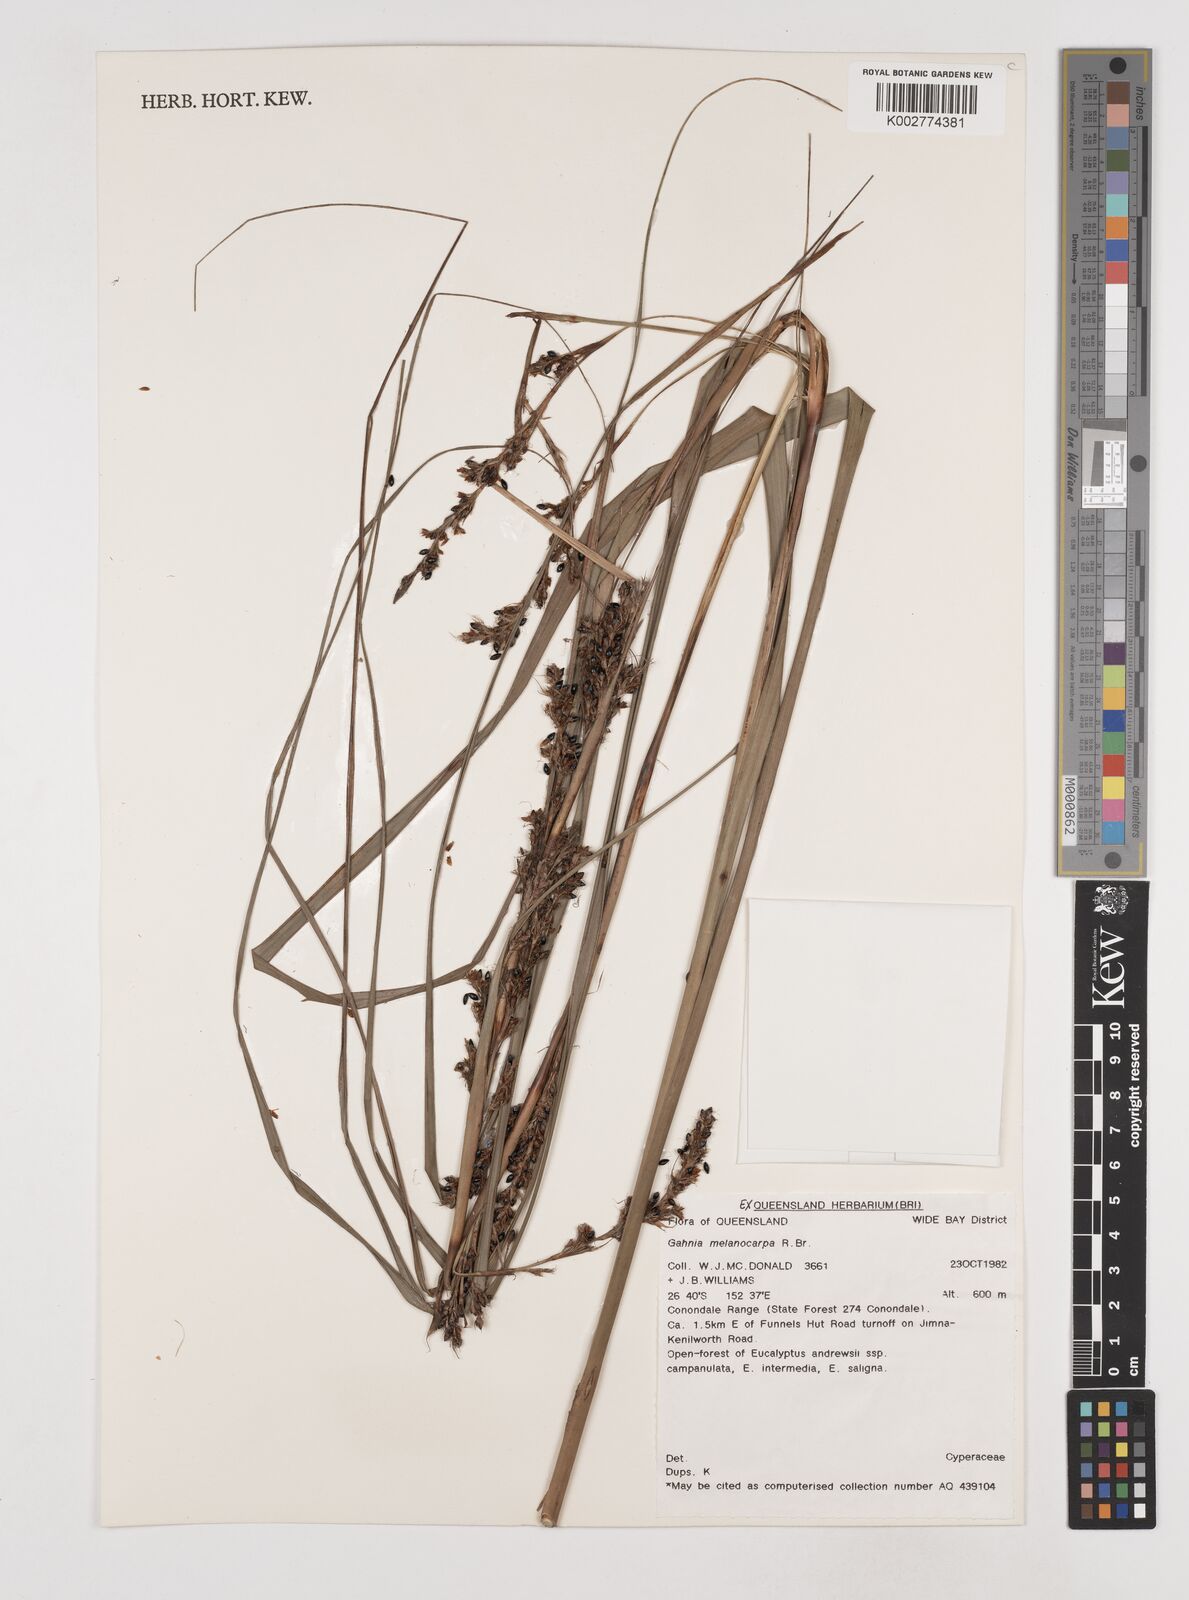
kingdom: Plantae
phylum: Tracheophyta
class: Liliopsida
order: Poales
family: Cyperaceae
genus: Gahnia
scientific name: Gahnia melanocarpa
